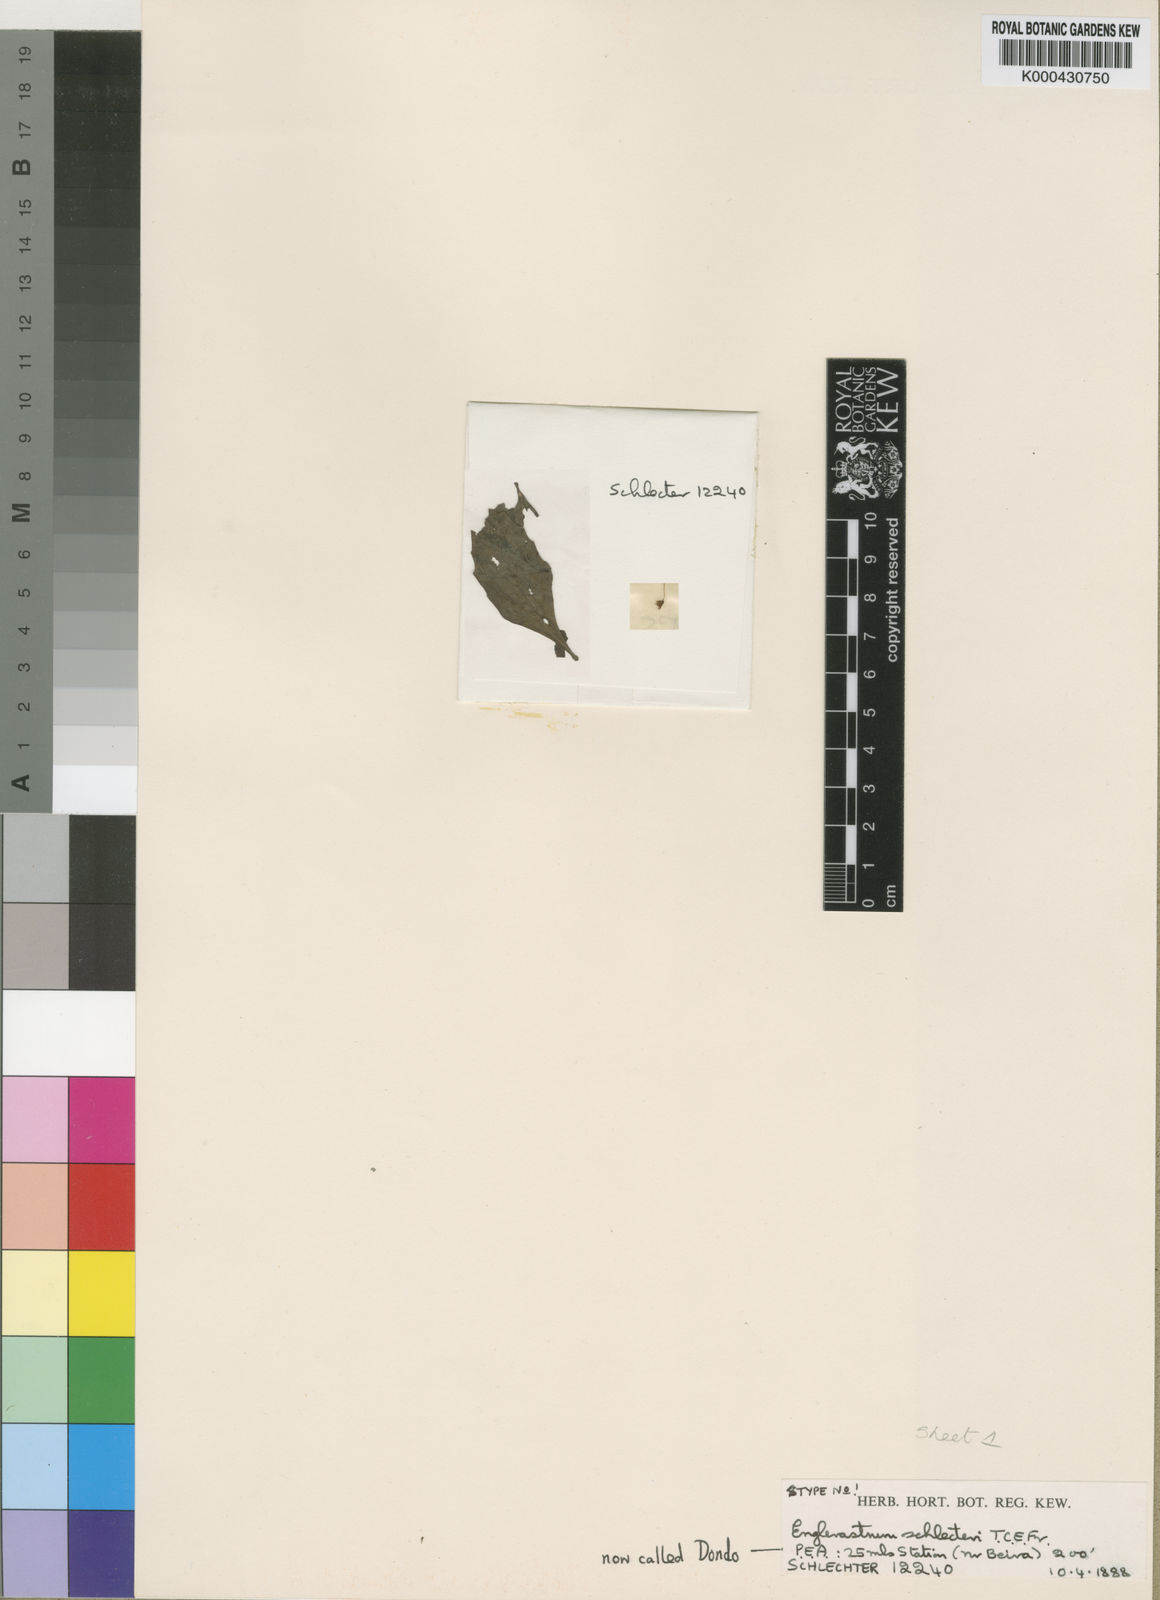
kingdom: Plantae
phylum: Tracheophyta
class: Magnoliopsida
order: Lamiales
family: Lamiaceae
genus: Coleus
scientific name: Coleus gracillimus
